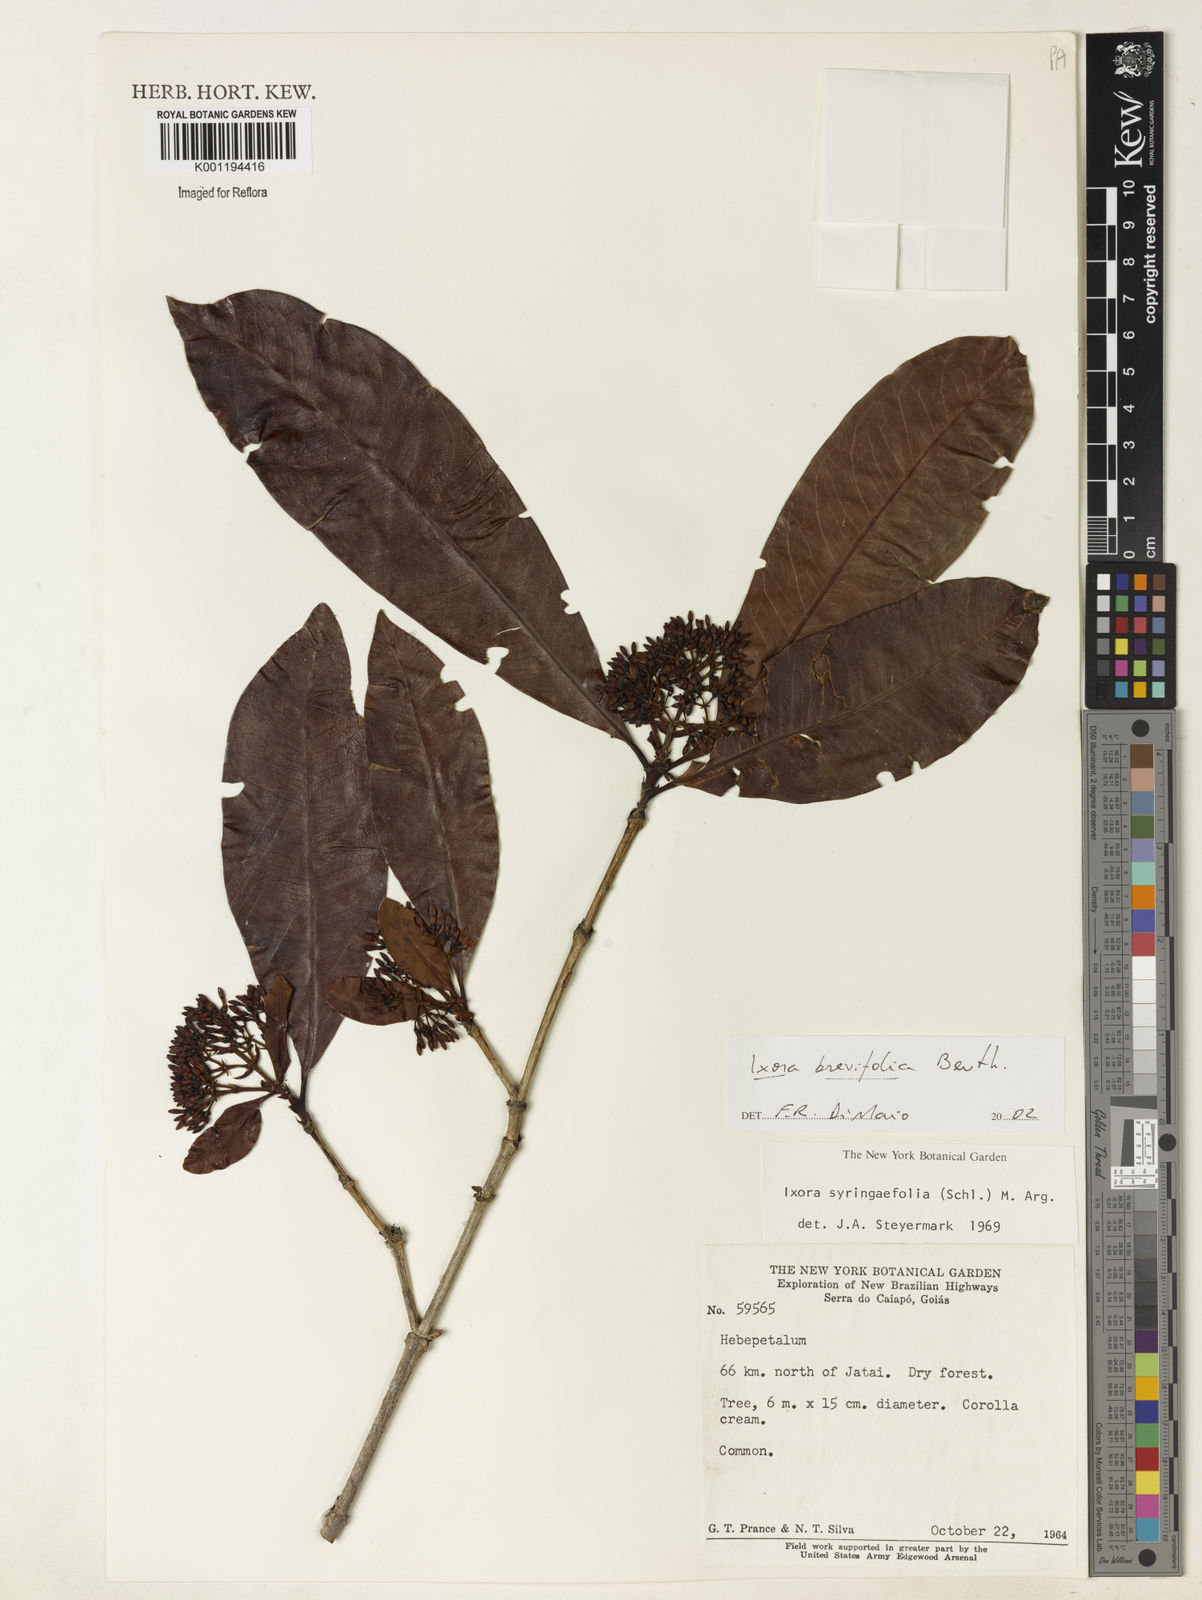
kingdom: Plantae
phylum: Tracheophyta
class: Magnoliopsida
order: Gentianales
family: Rubiaceae
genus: Ixora
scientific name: Ixora brevifolia
